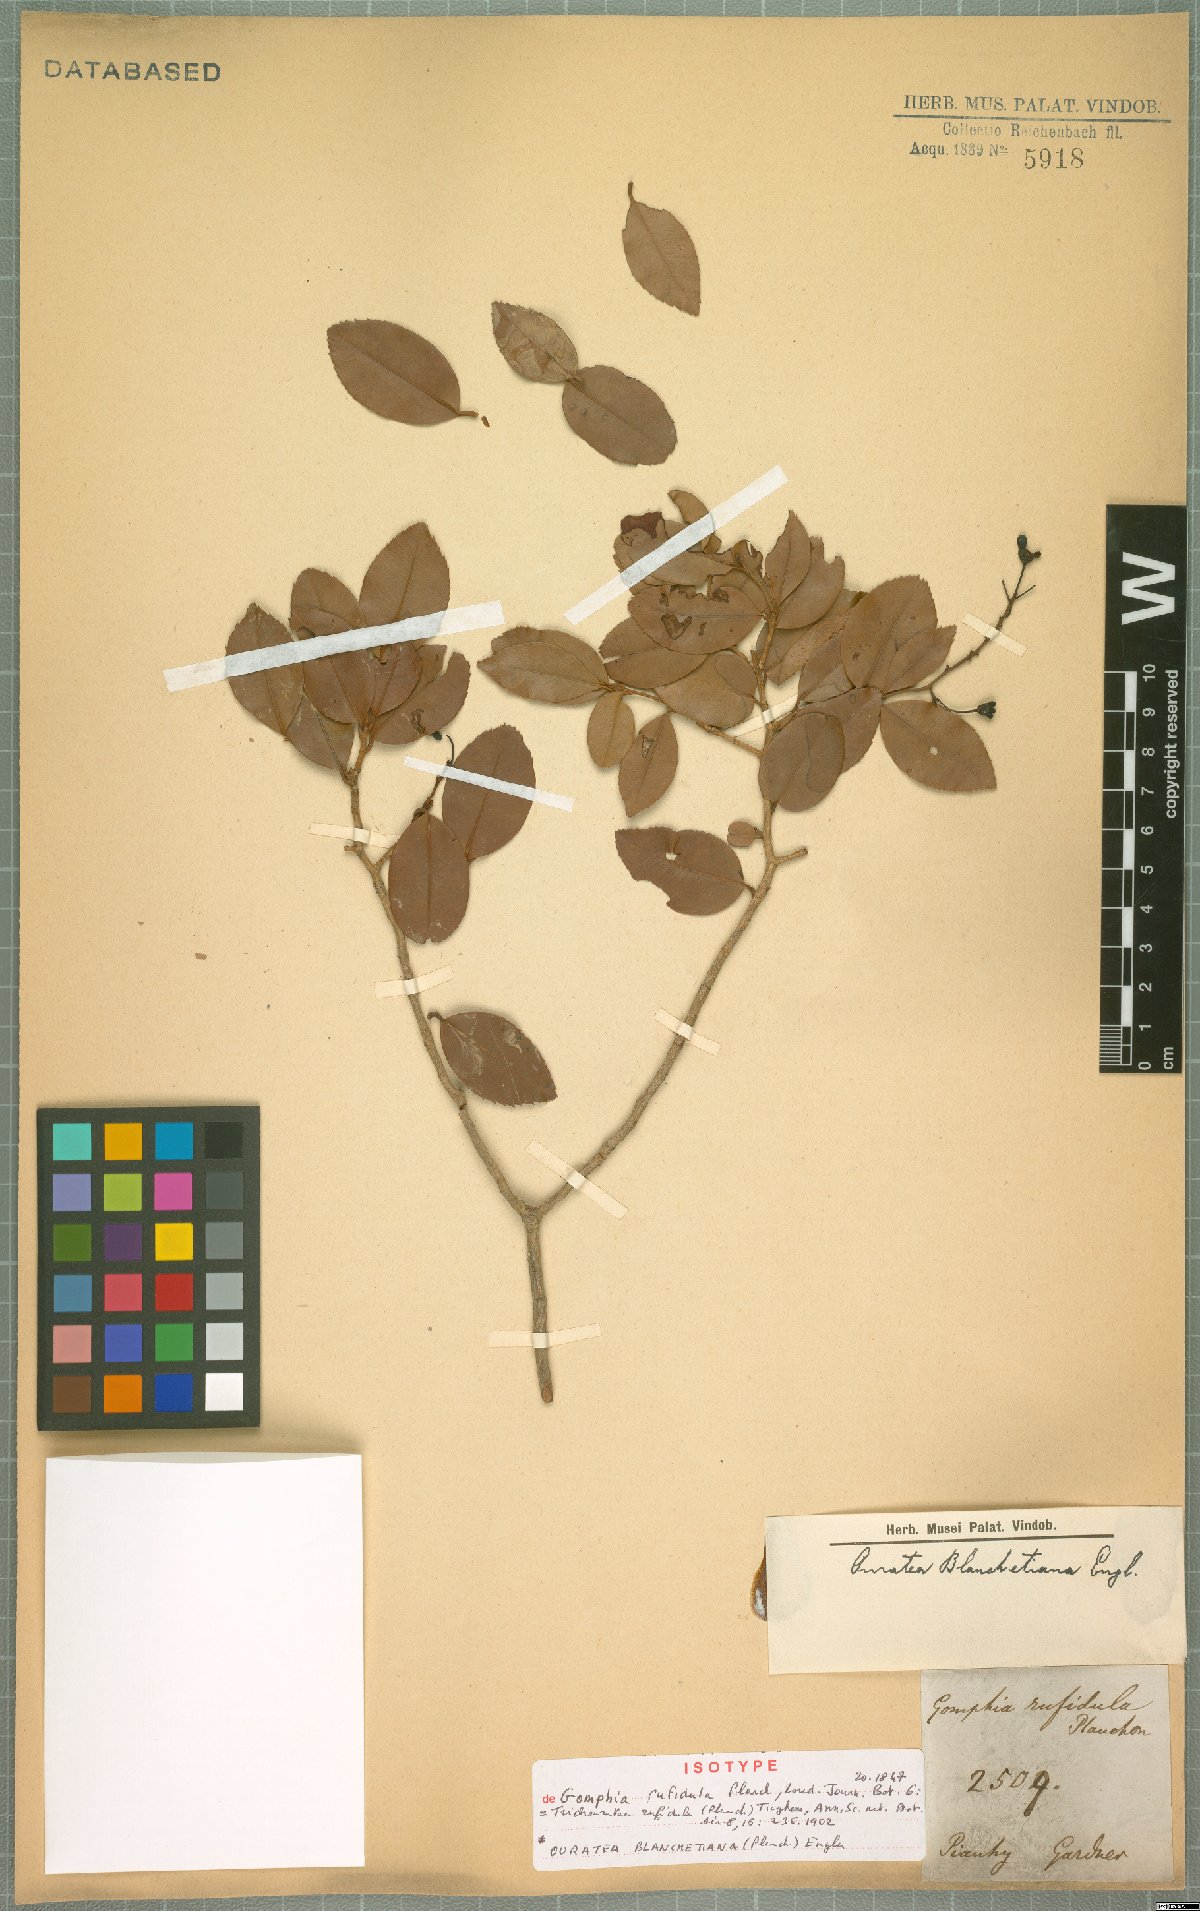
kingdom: Plantae
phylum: Tracheophyta
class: Magnoliopsida
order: Malpighiales
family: Ochnaceae
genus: Ouratea
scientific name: Ouratea blanchetiana
